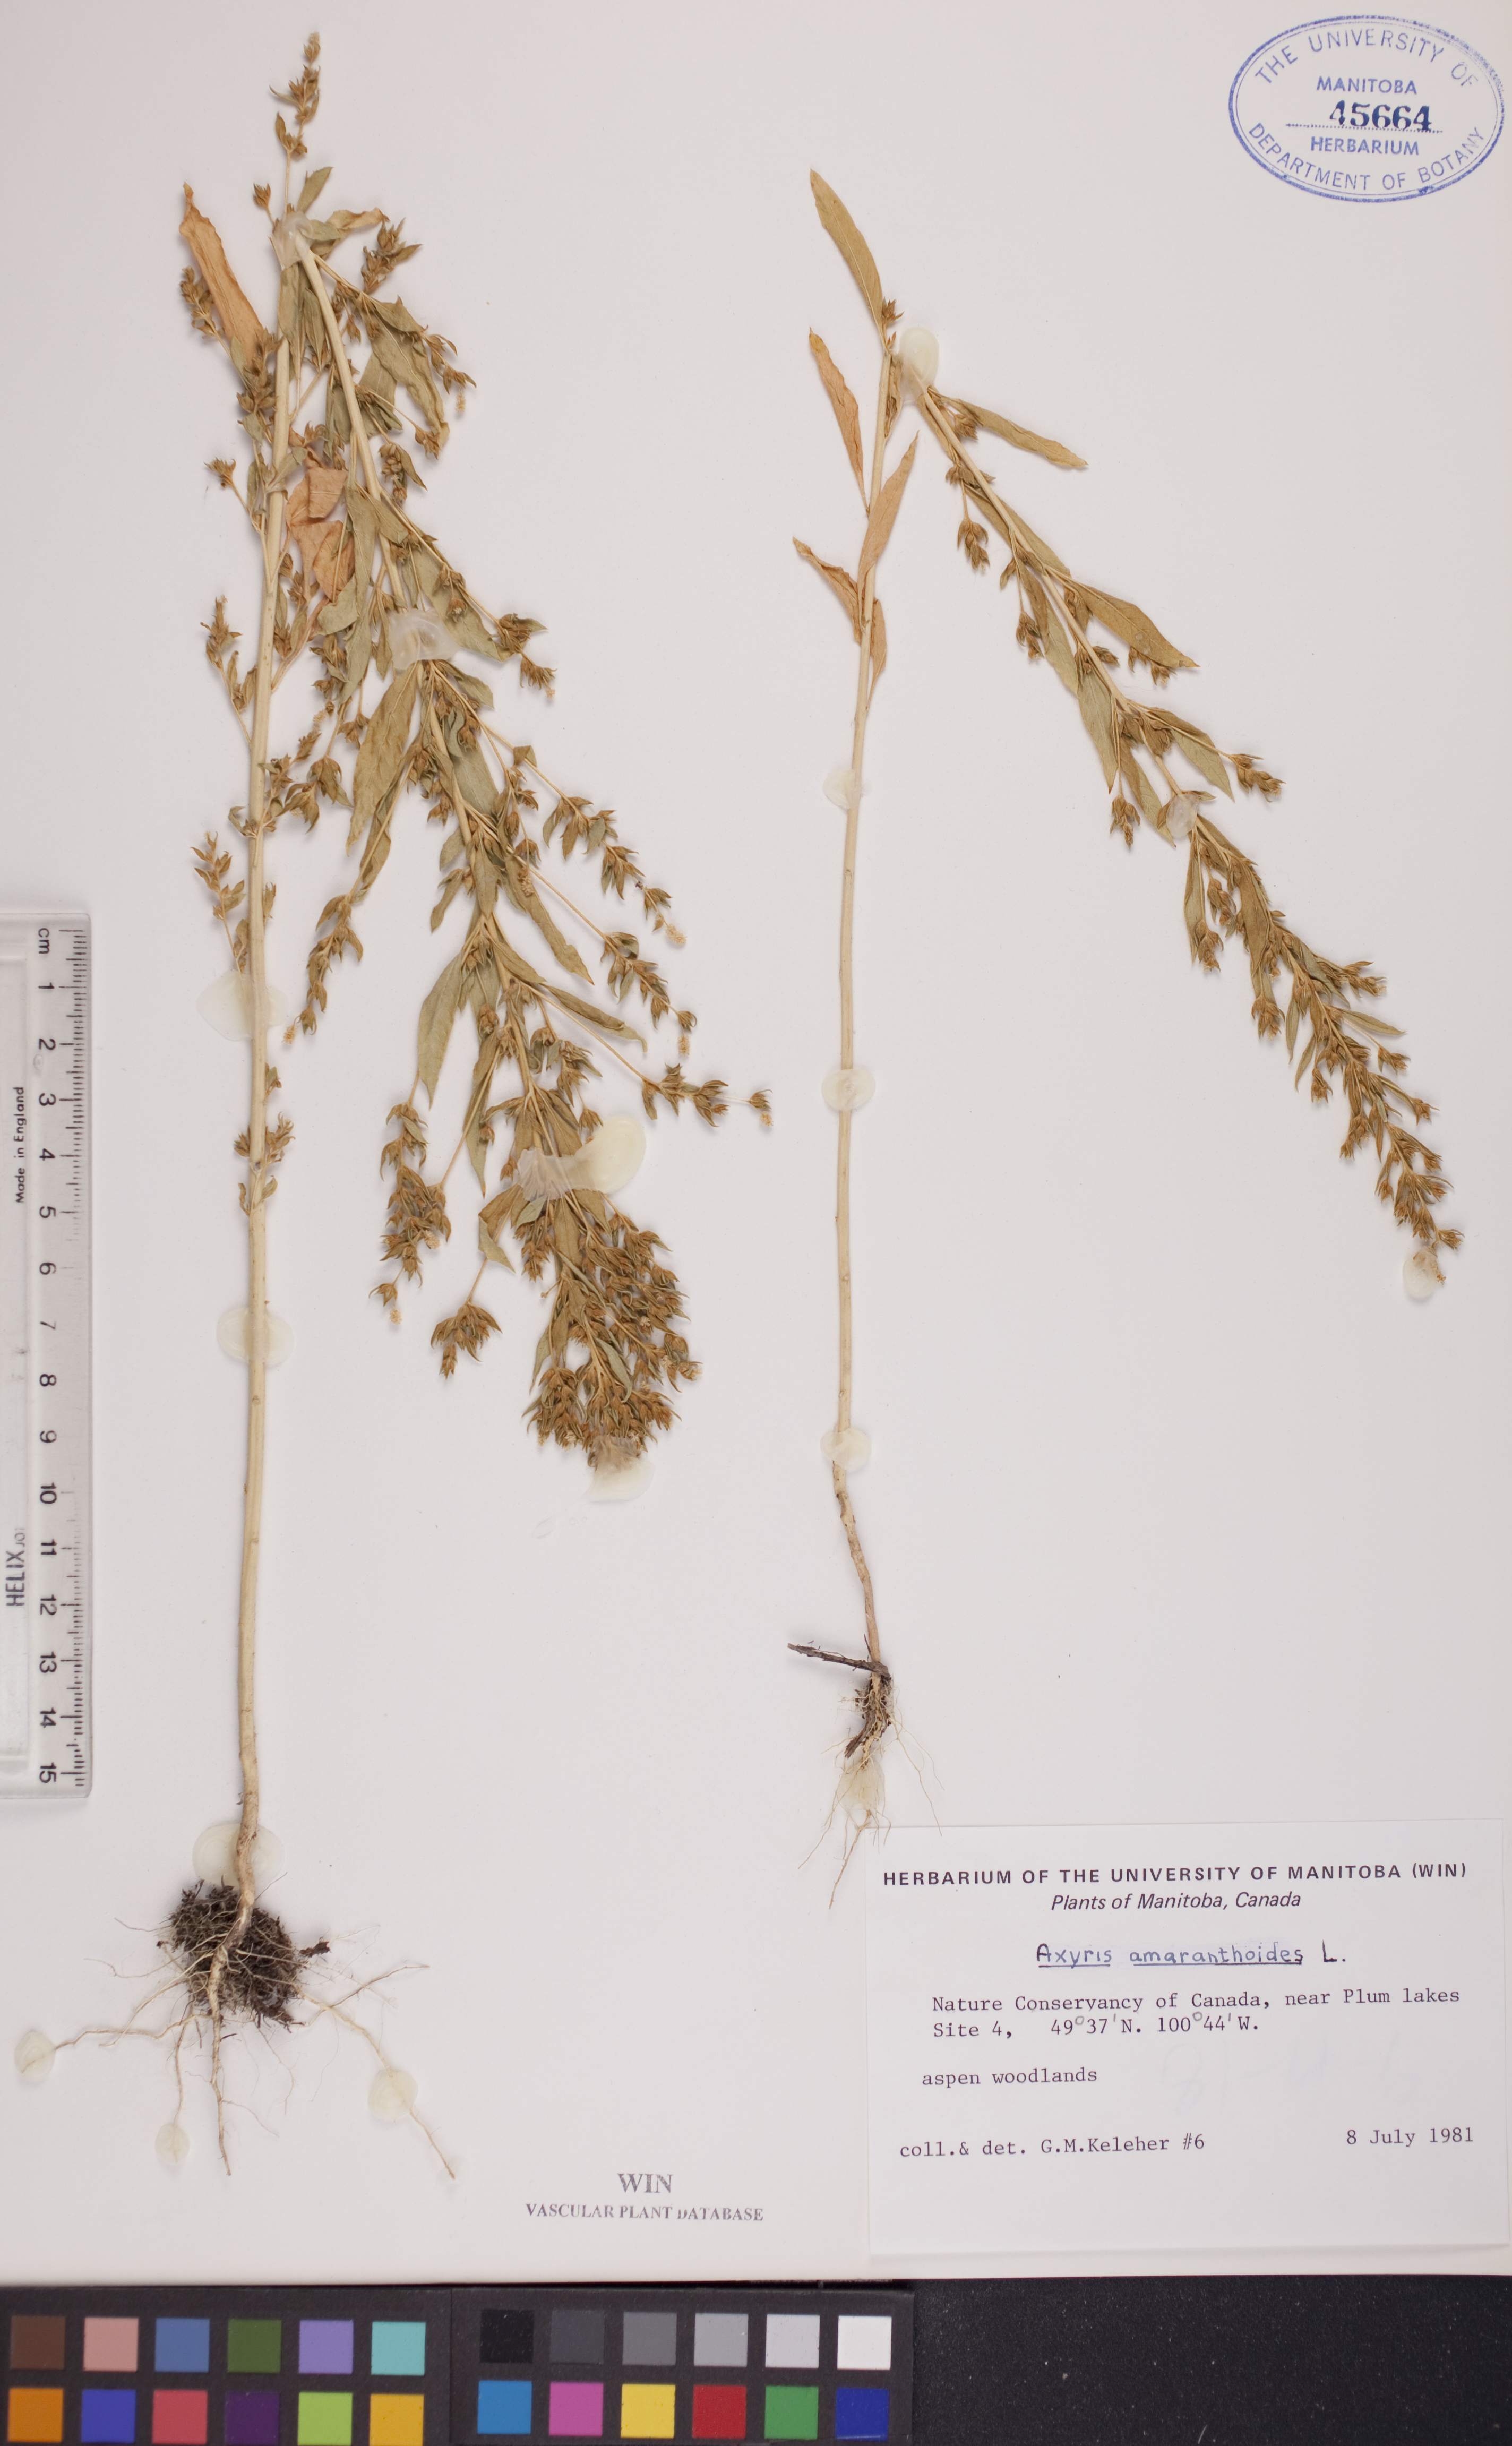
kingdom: Plantae
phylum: Tracheophyta
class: Magnoliopsida
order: Caryophyllales
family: Amaranthaceae
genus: Axyris
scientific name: Axyris amaranthoides
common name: Russian pigweed
